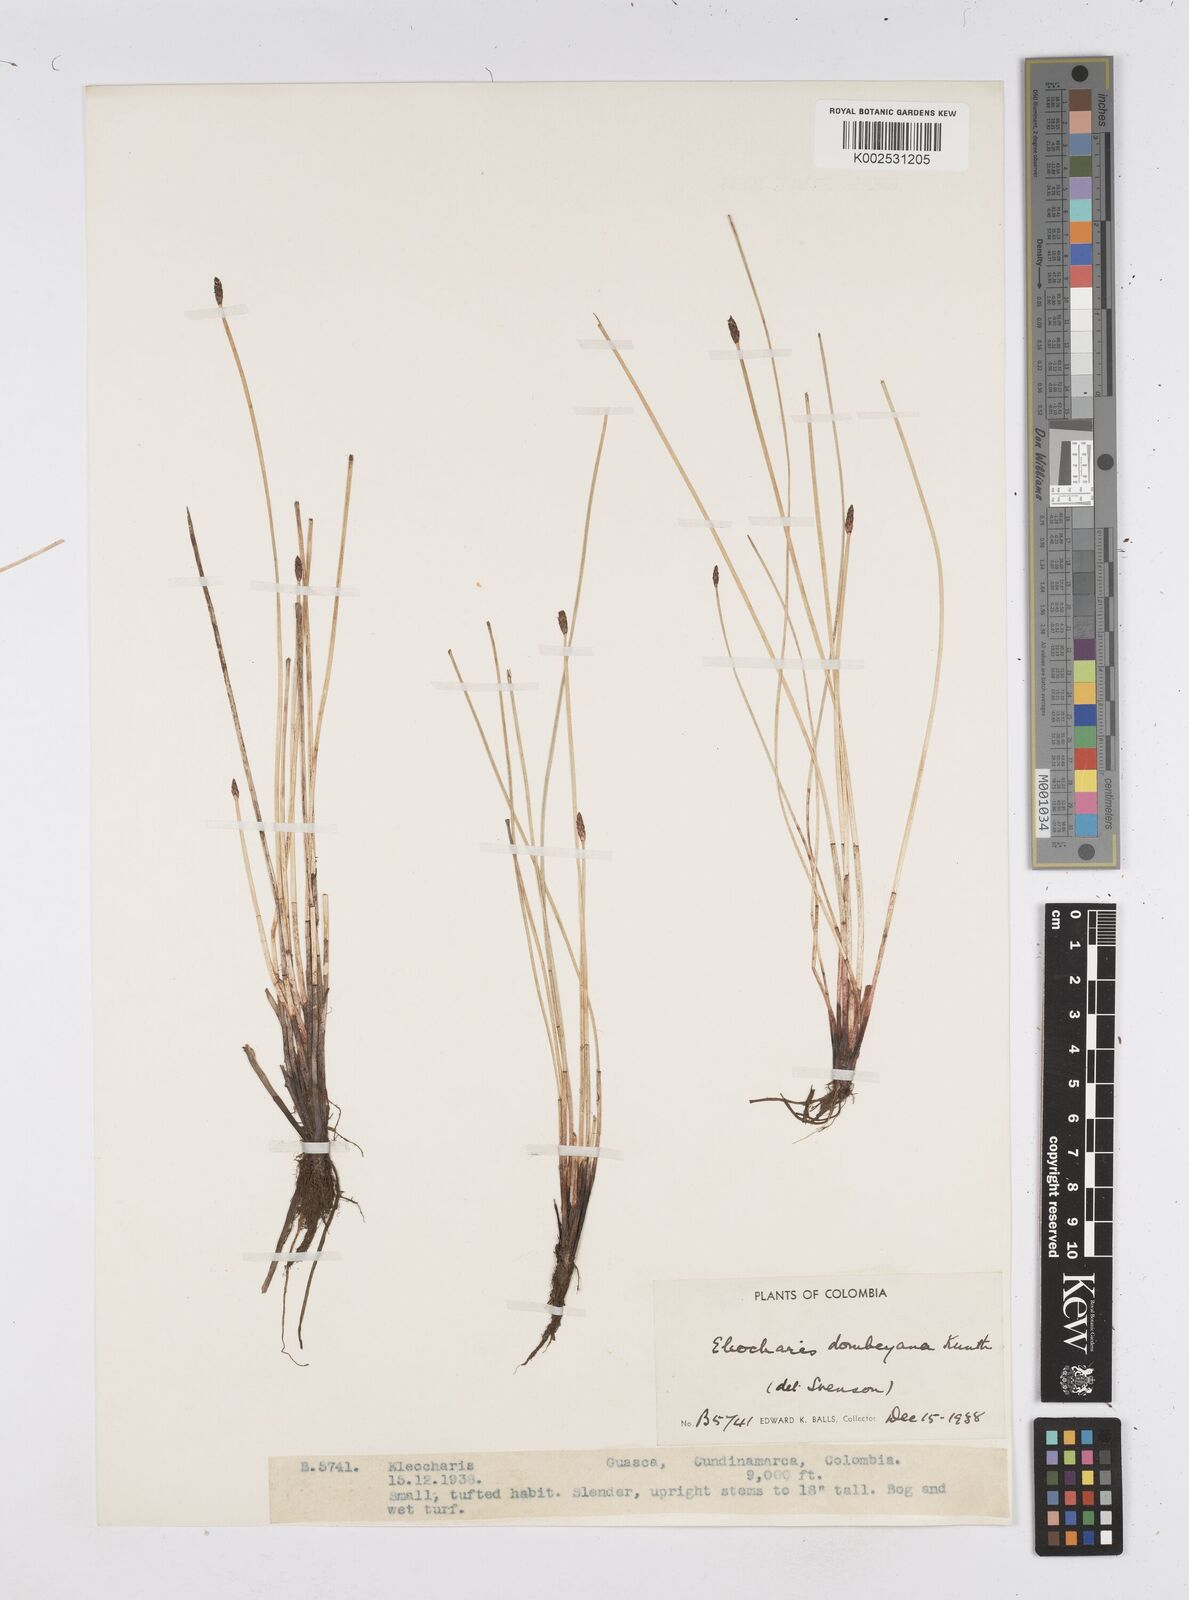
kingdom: Plantae
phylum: Tracheophyta
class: Liliopsida
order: Poales
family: Cyperaceae
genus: Eleocharis
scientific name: Eleocharis dombeyana
